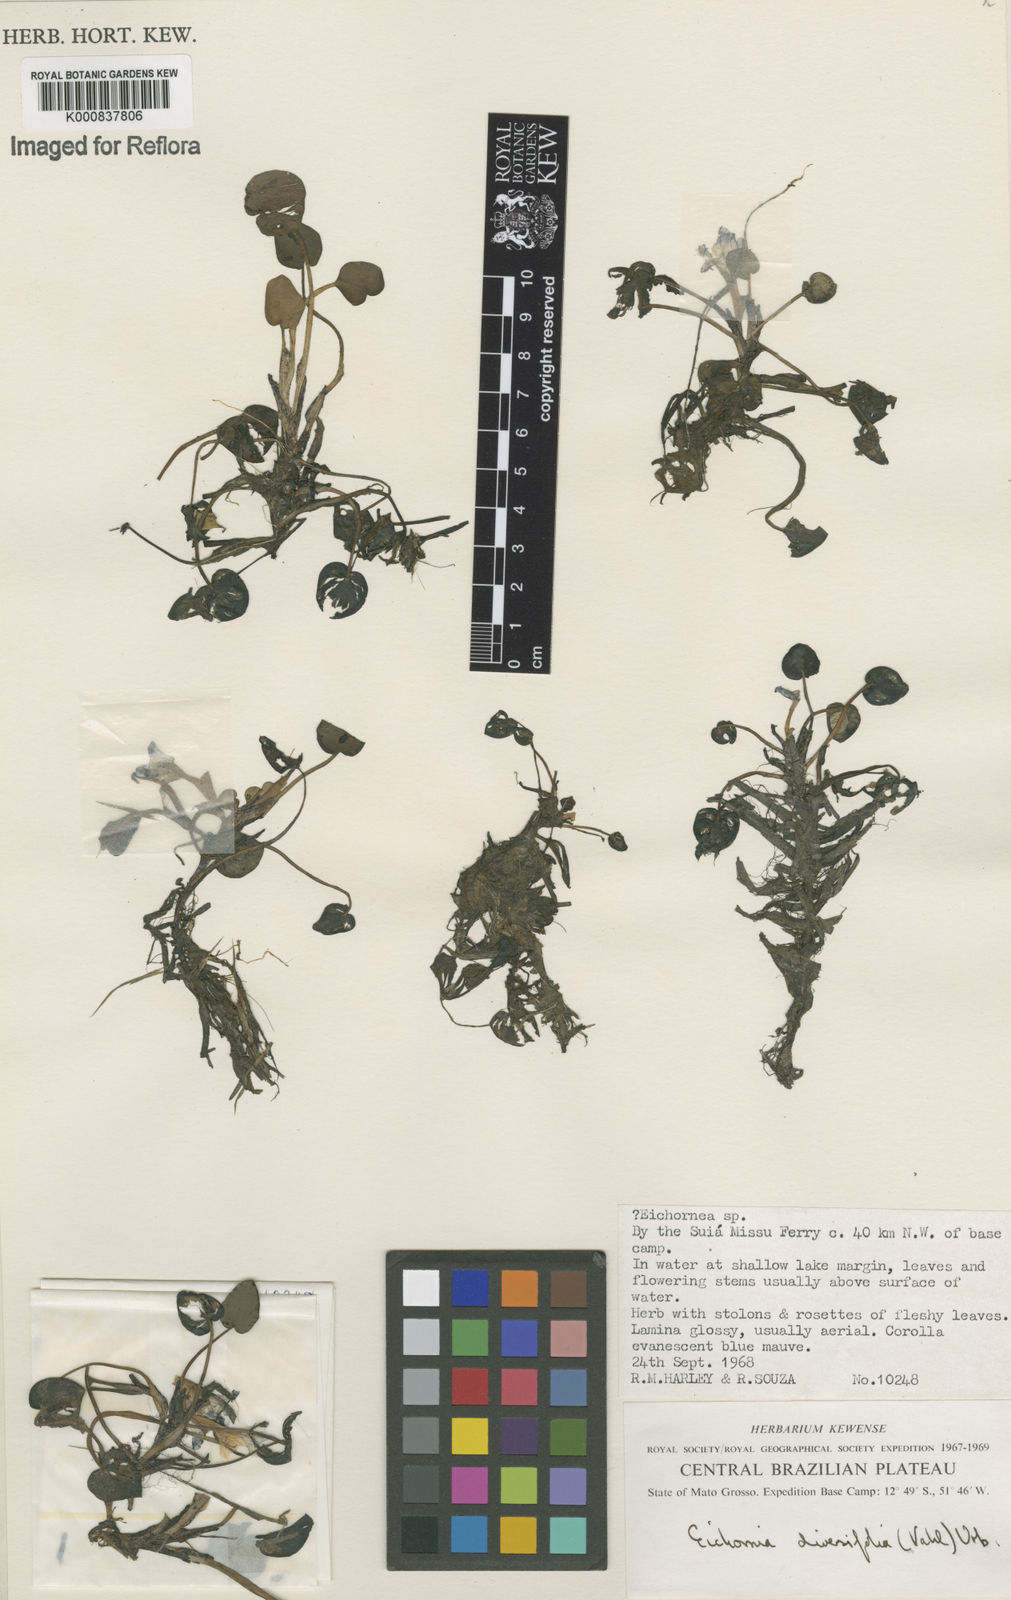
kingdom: Plantae
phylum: Tracheophyta
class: Liliopsida
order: Commelinales
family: Pontederiaceae
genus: Pontederia
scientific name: Pontederia diversifolia
